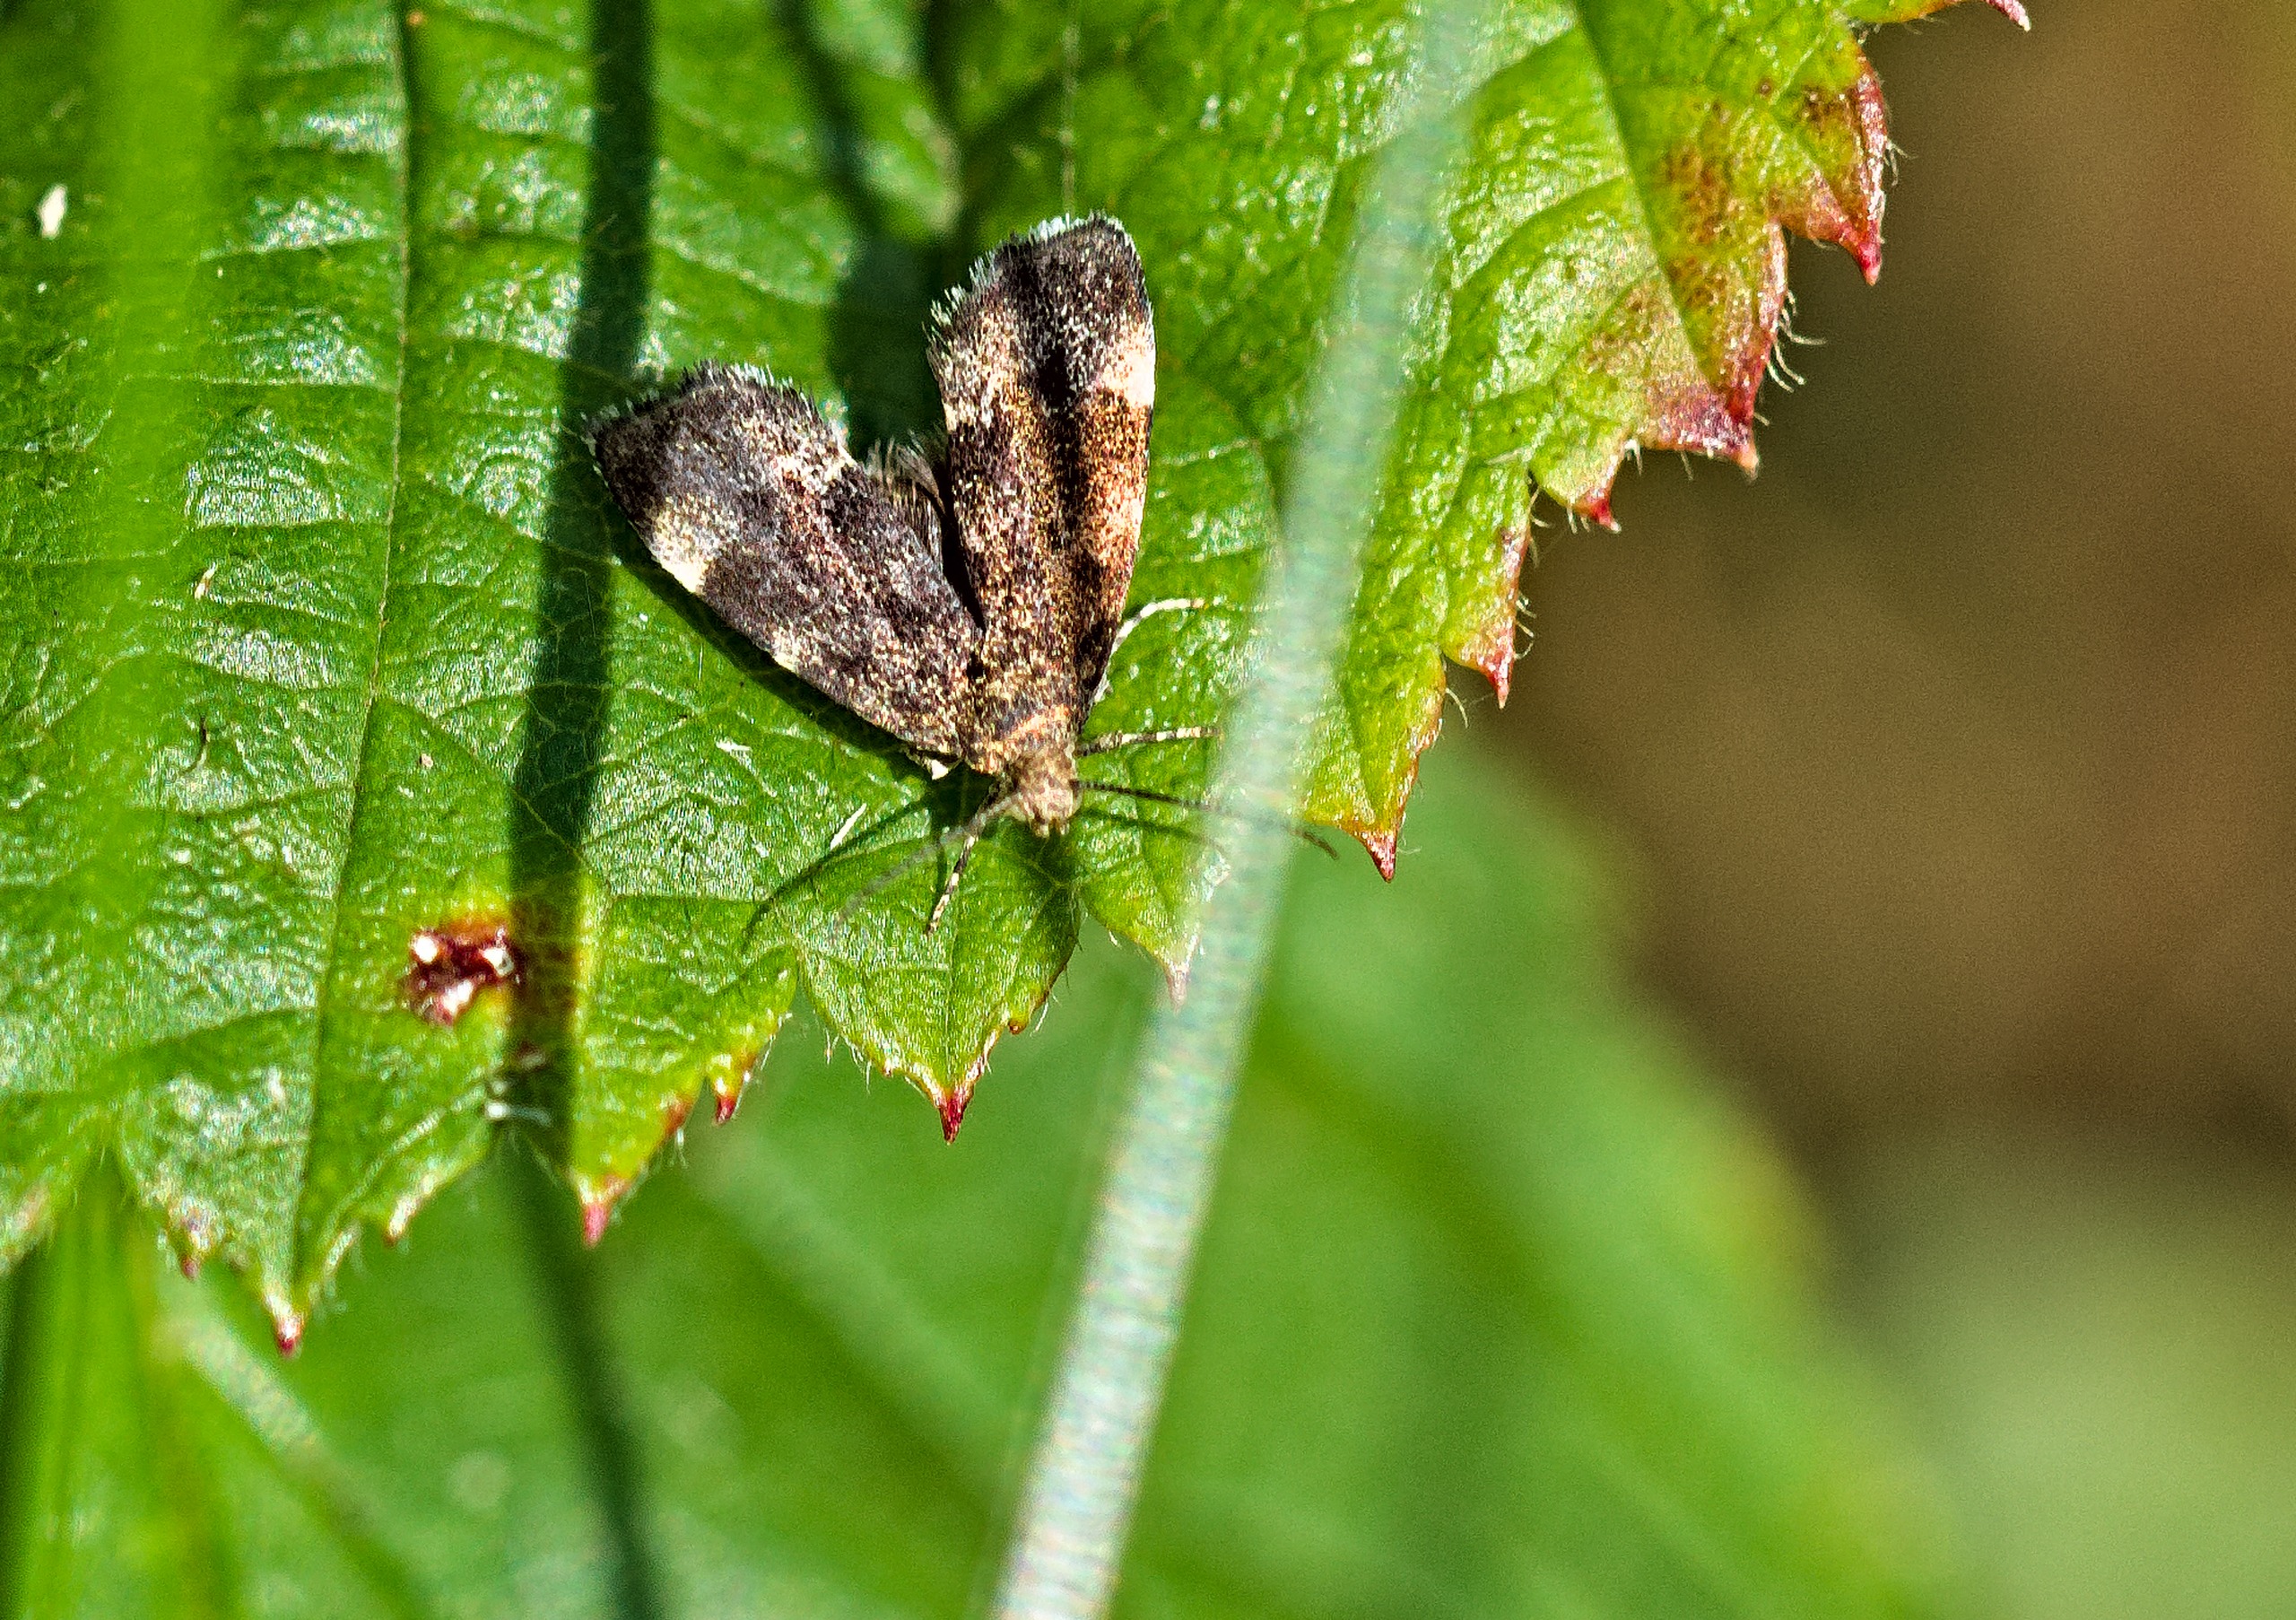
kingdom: Animalia
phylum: Arthropoda
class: Insecta
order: Lepidoptera
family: Choreutidae
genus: Anthophila
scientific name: Anthophila fabriciana
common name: Bredvinget nældevikler
